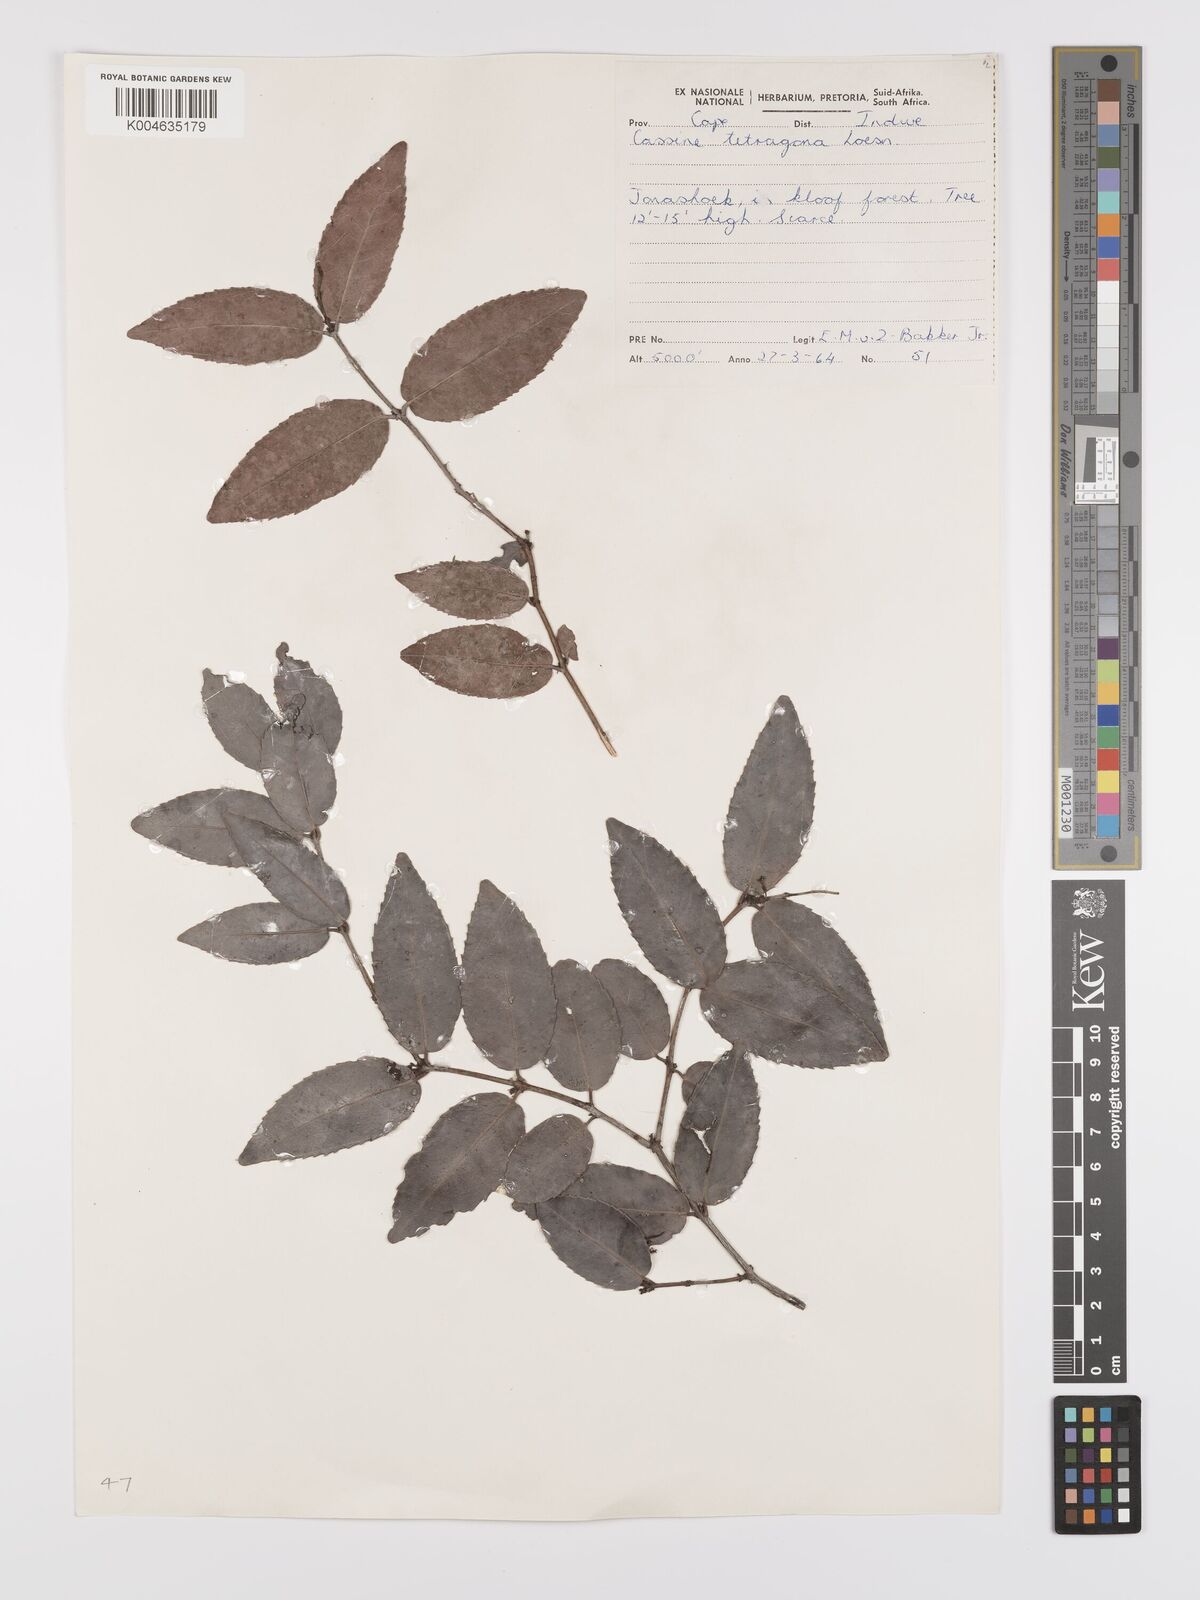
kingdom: Plantae
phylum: Tracheophyta
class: Magnoliopsida
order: Celastrales
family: Celastraceae
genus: Lauridia
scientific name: Lauridia tetragona
